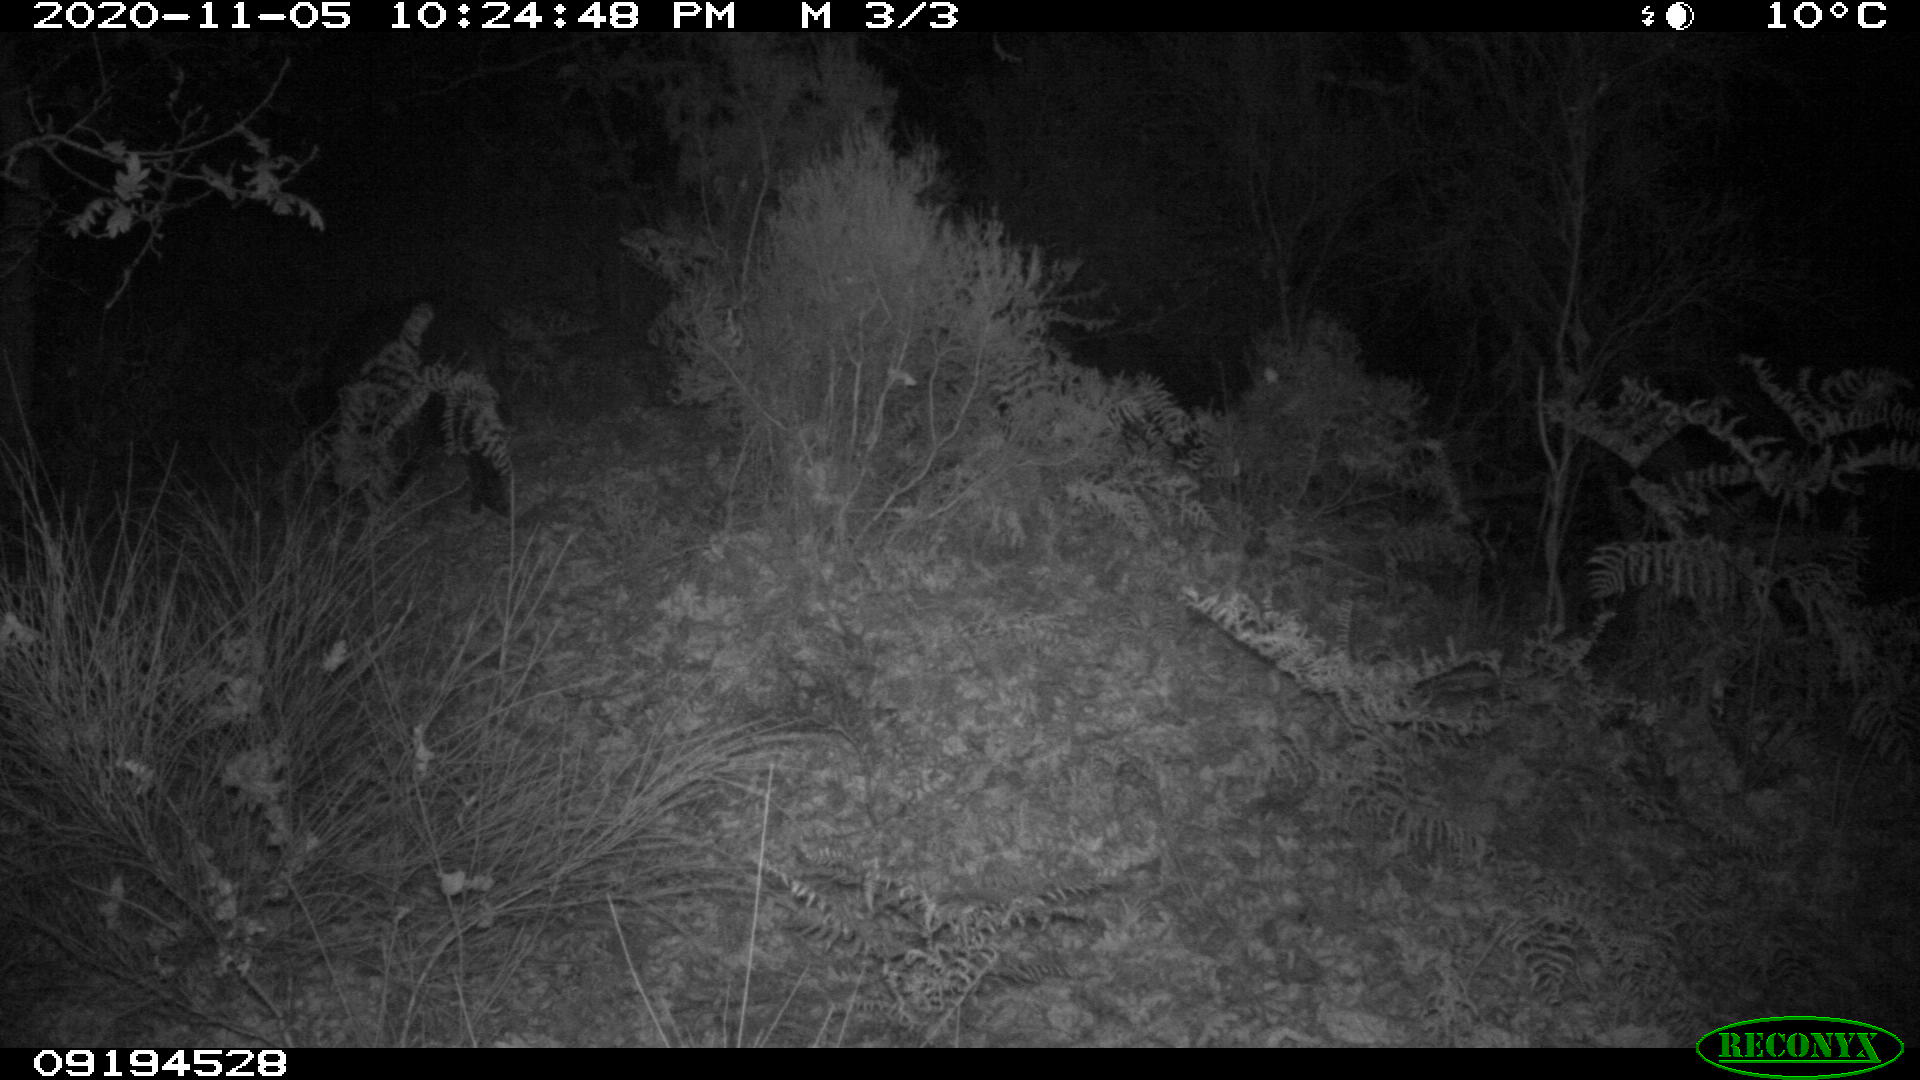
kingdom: Animalia
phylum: Chordata
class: Mammalia
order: Artiodactyla
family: Suidae
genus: Sus
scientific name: Sus scrofa
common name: Wild boar
